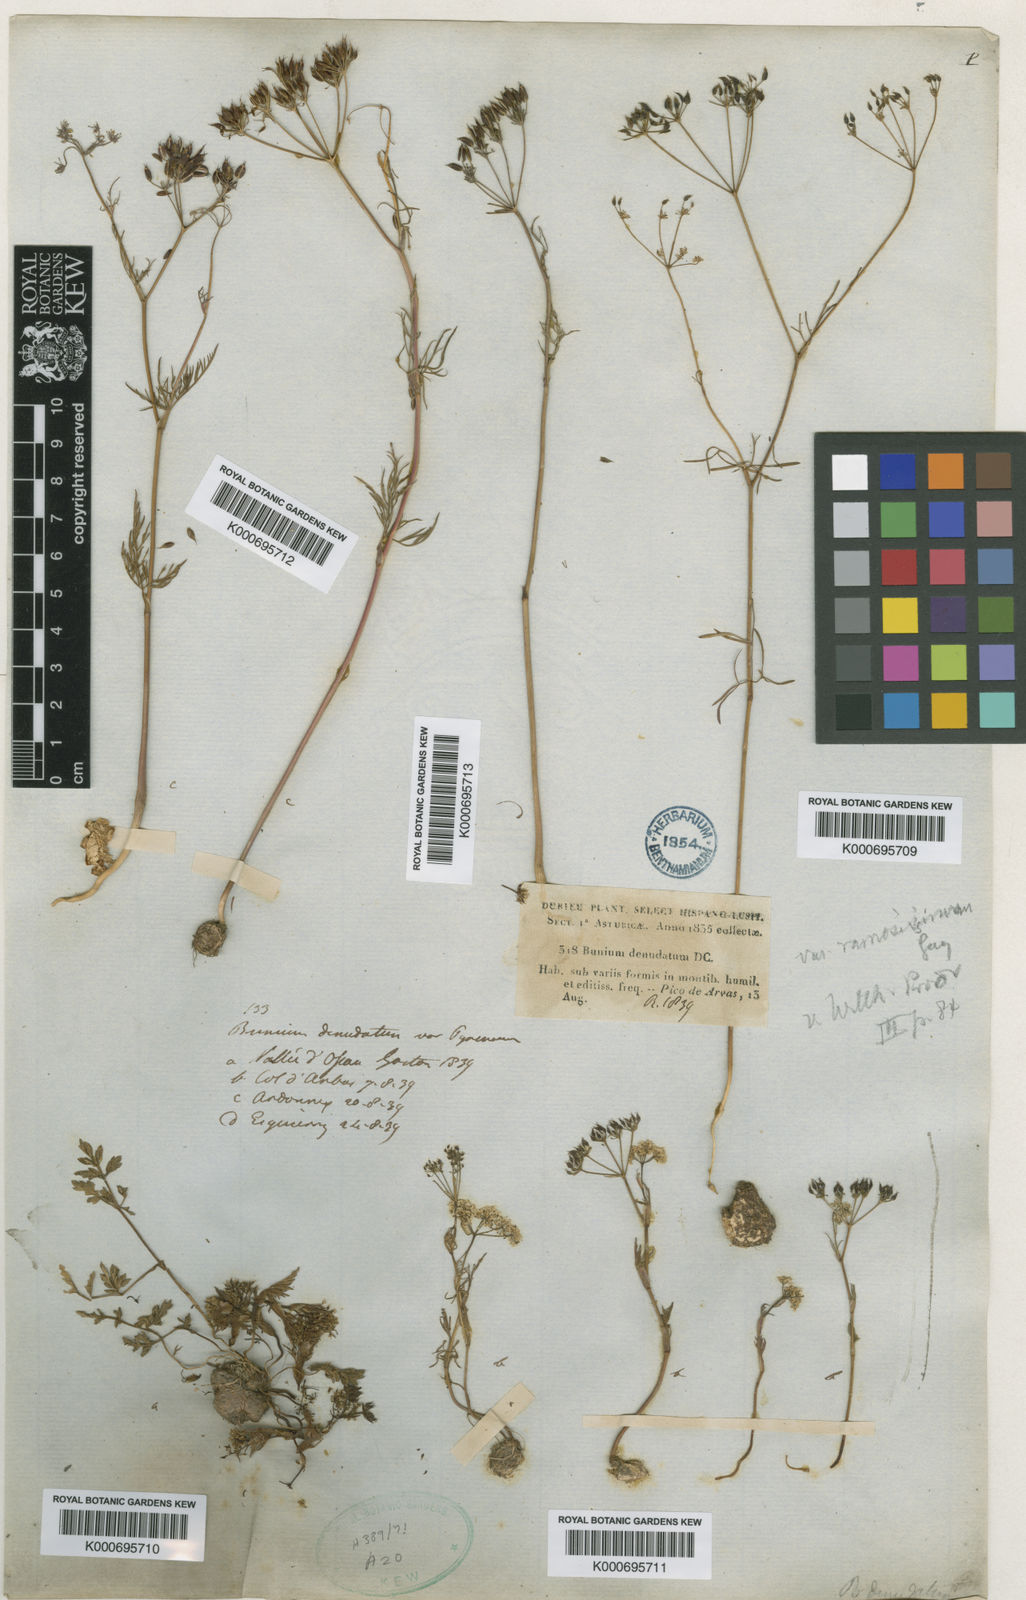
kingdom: Plantae
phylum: Tracheophyta
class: Magnoliopsida
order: Apiales
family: Apiaceae
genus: Conopodium
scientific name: Conopodium majus
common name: Pignut
